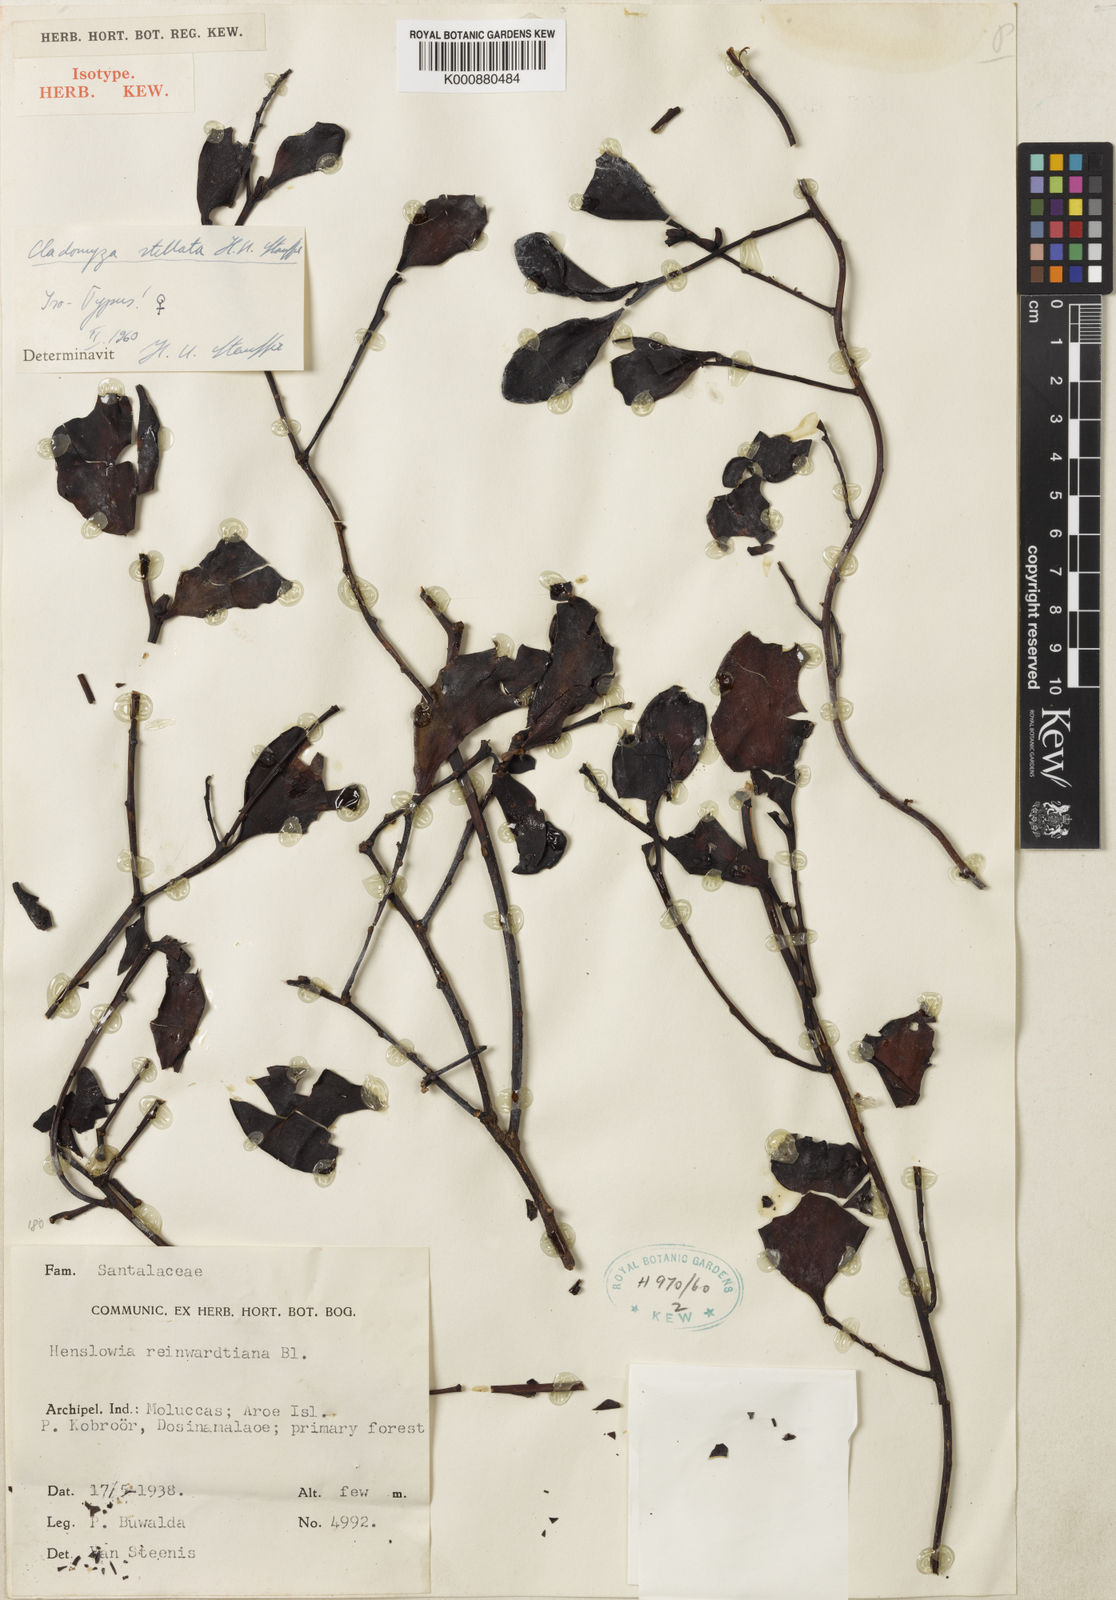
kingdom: Plantae
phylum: Tracheophyta
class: Magnoliopsida
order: Santalales
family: Amphorogynaceae
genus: Cladomyza
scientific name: Cladomyza stellata
